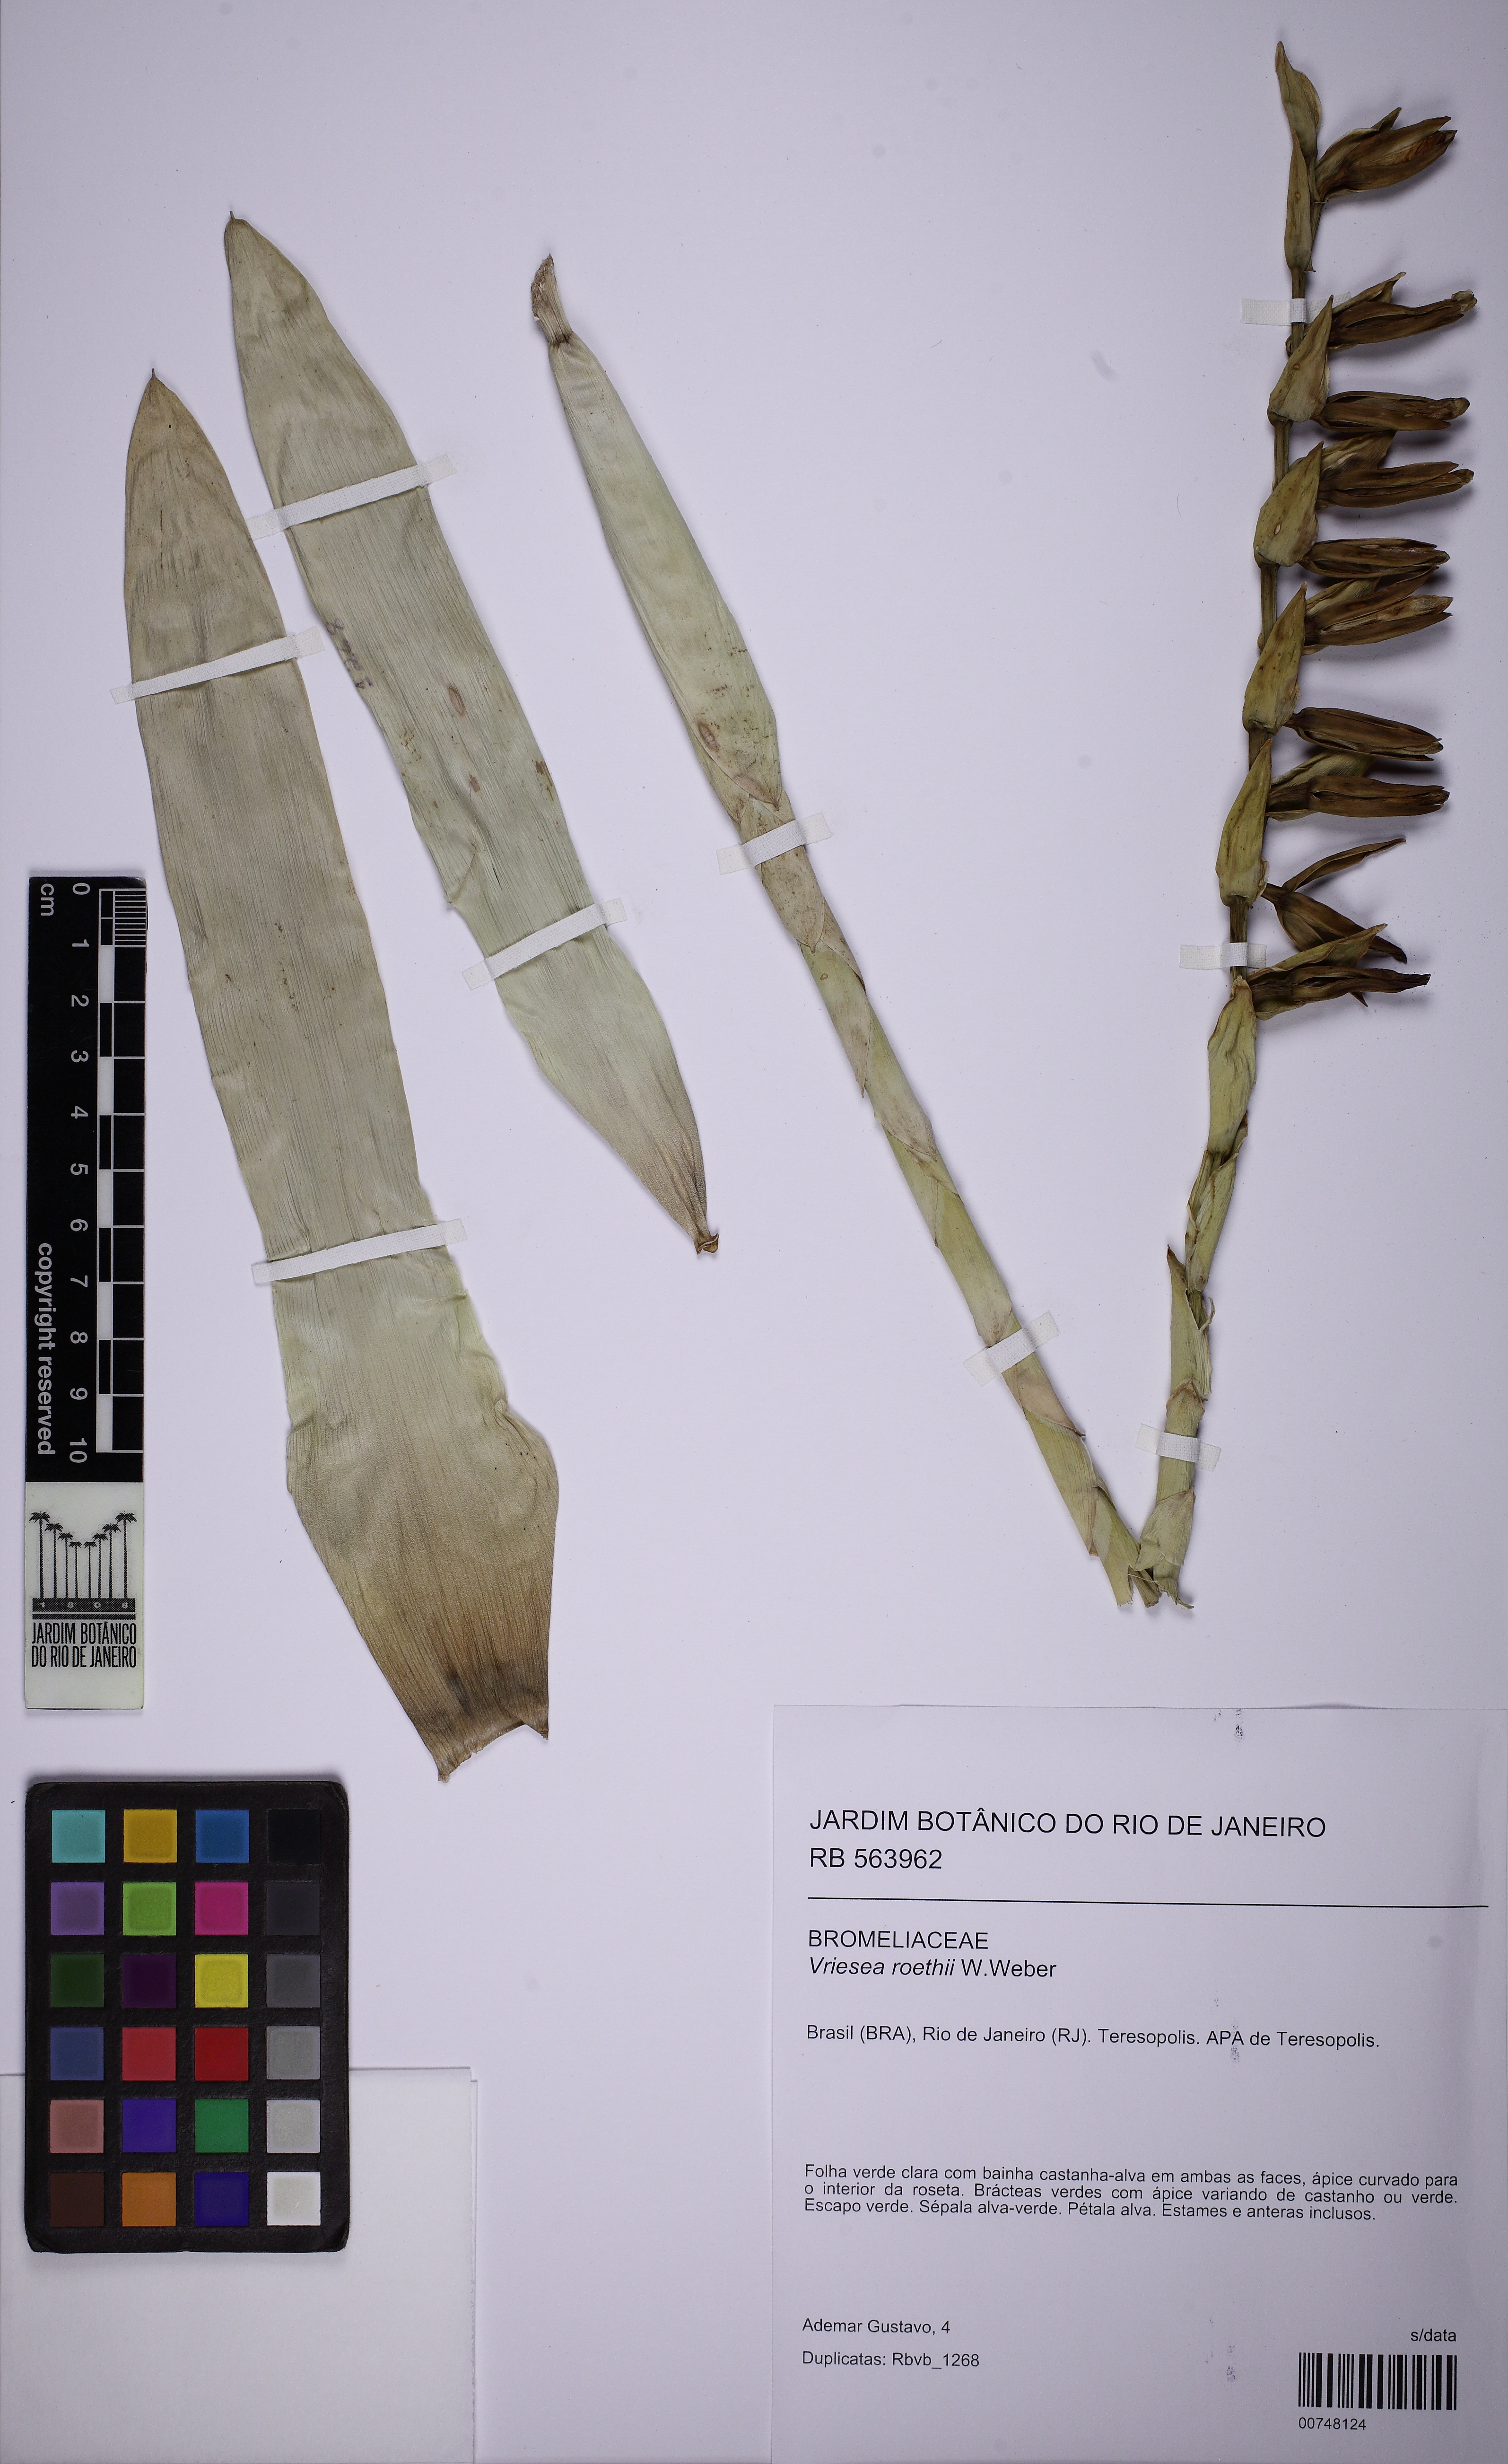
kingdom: Plantae
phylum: Tracheophyta
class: Liliopsida
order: Poales
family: Bromeliaceae
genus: Vriesea
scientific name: Vriesea roethii
